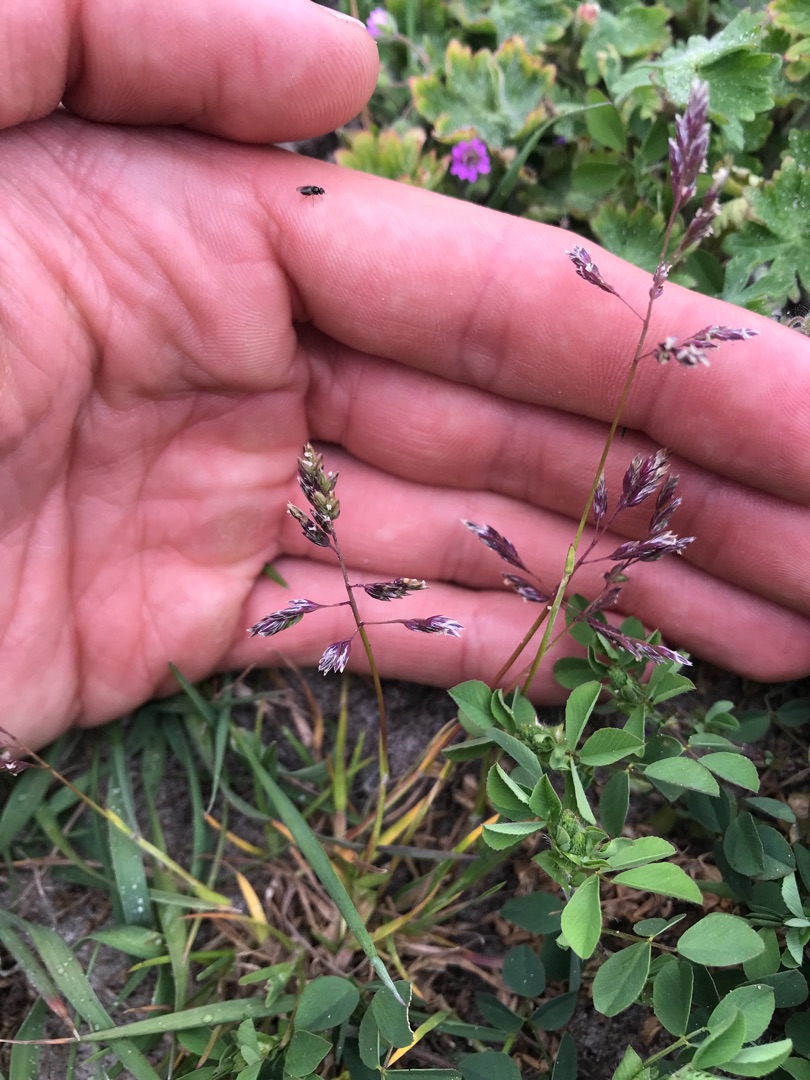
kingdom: Plantae
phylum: Tracheophyta
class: Liliopsida
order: Poales
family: Poaceae
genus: Poa
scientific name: Poa annua
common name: Enårig rapgræs
